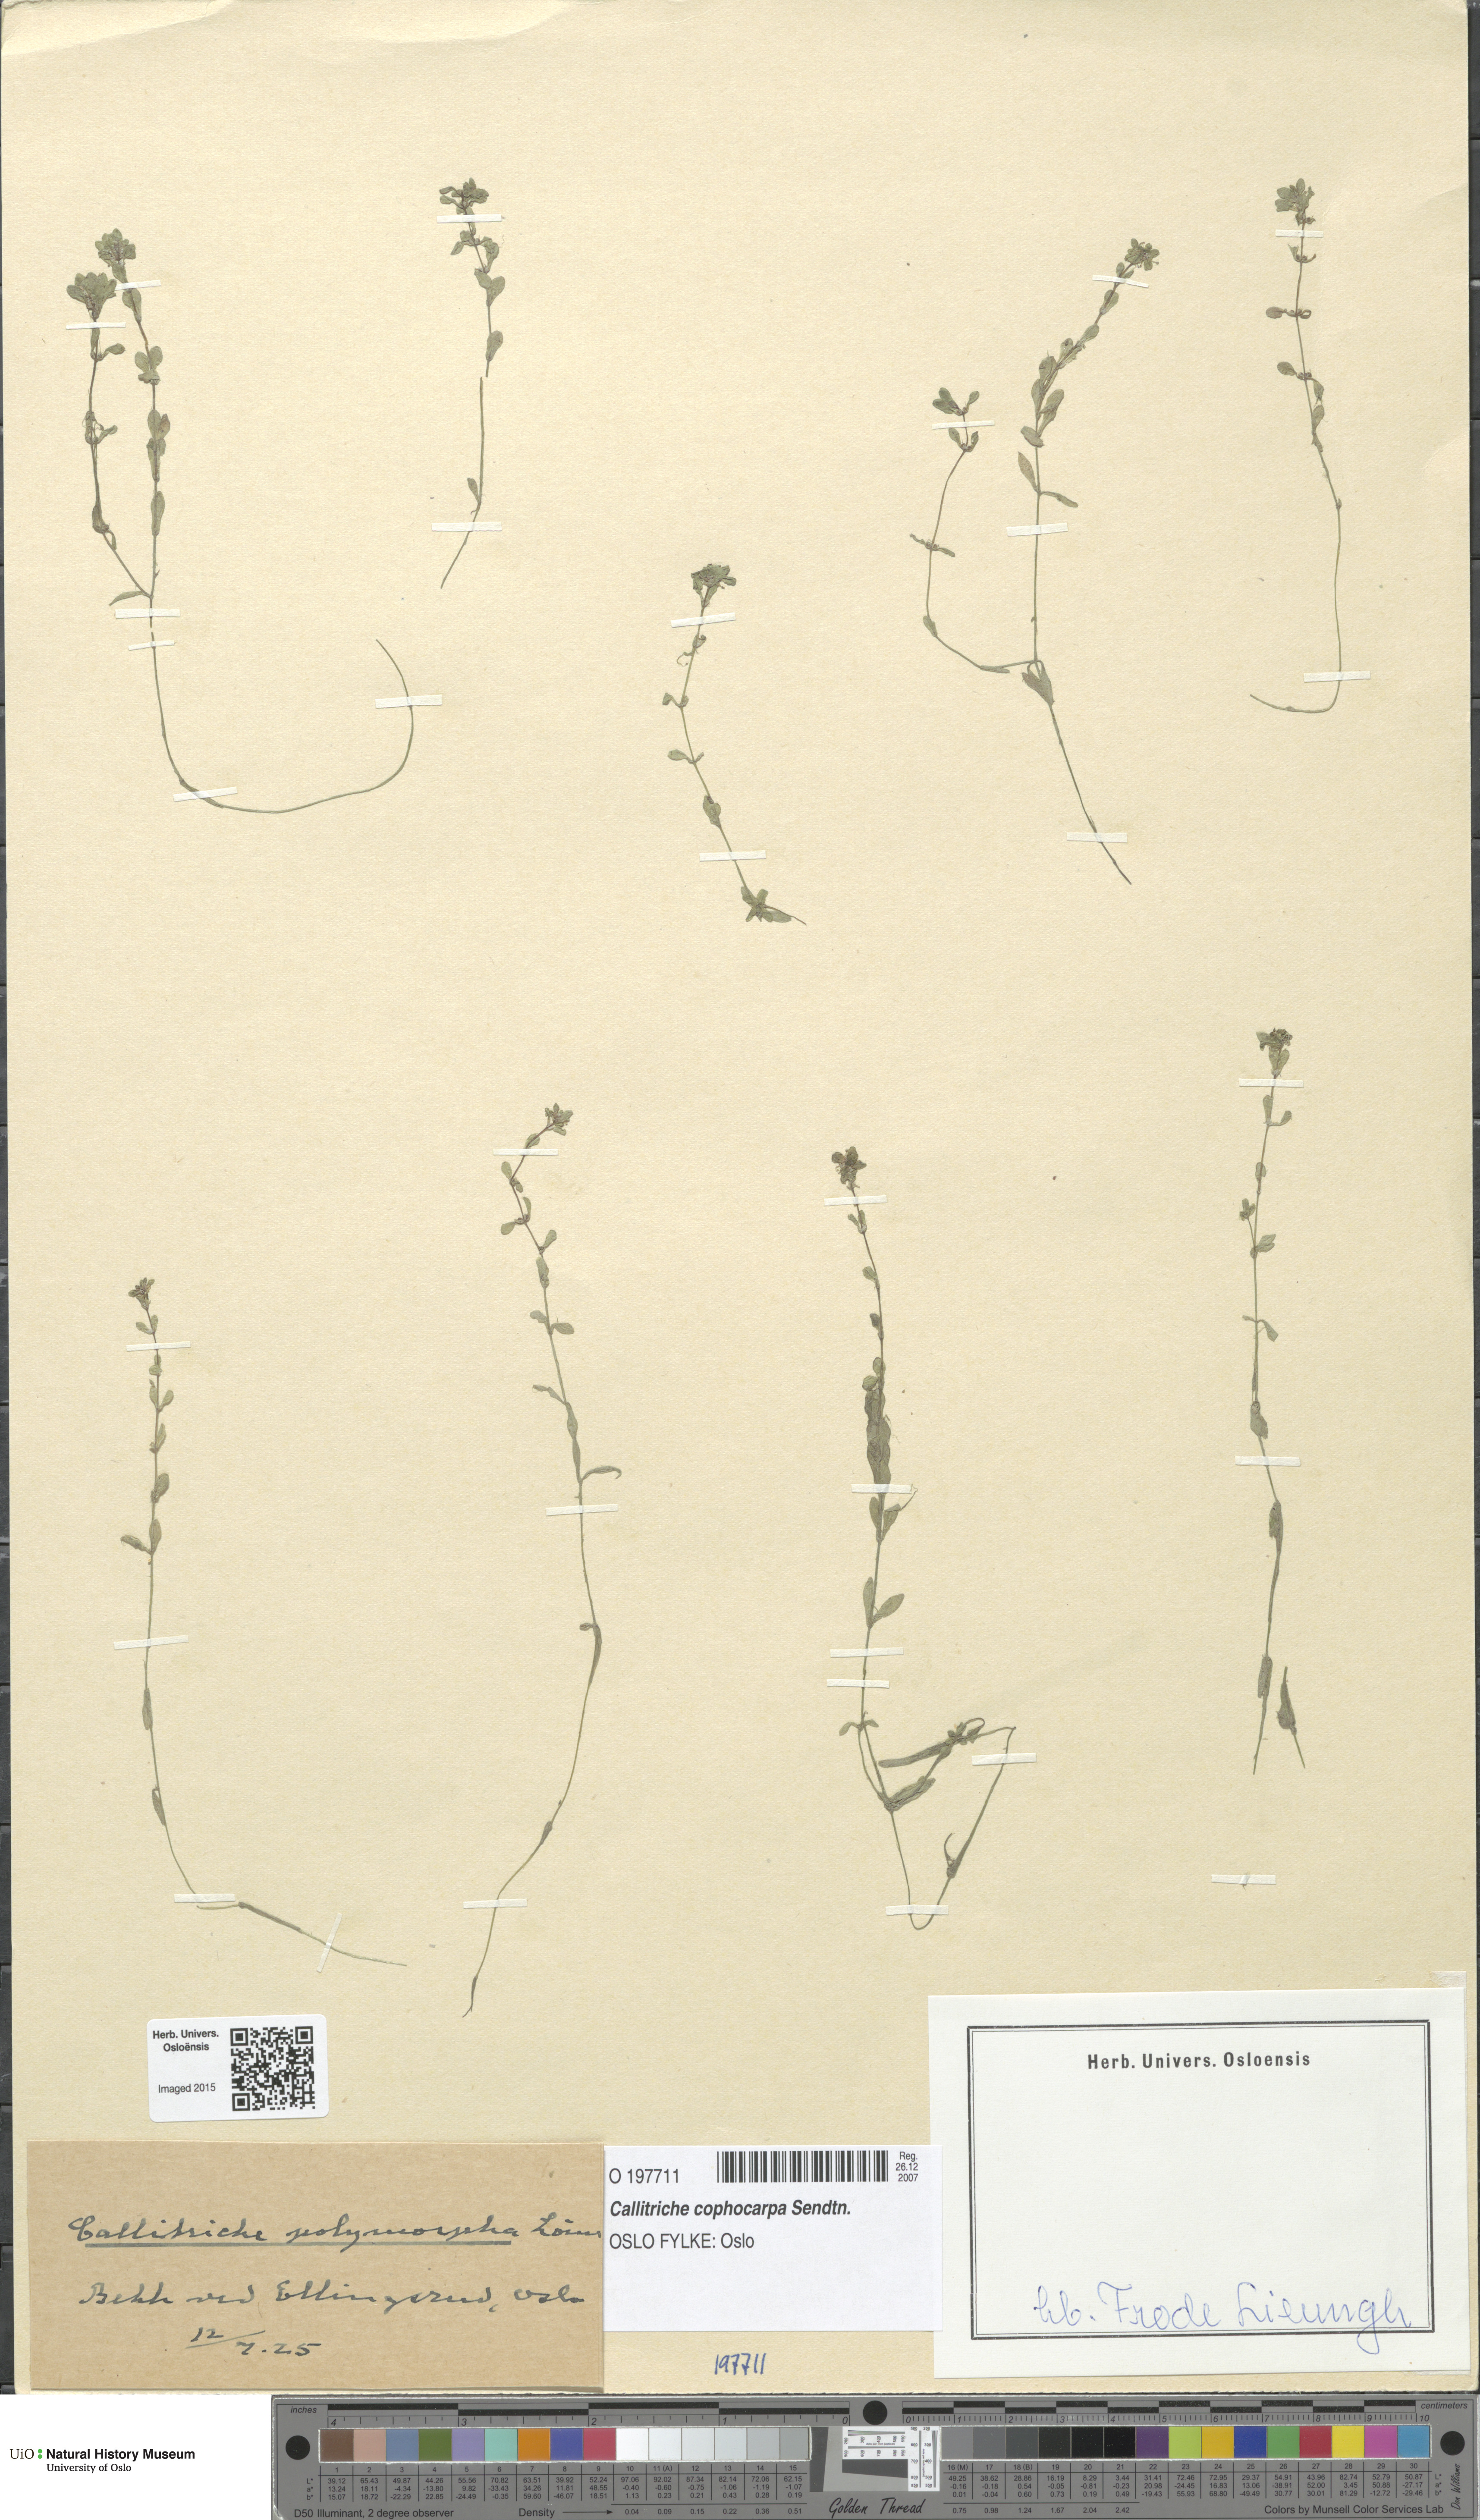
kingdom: Plantae
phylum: Tracheophyta
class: Magnoliopsida
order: Lamiales
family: Plantaginaceae
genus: Callitriche
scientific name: Callitriche cophocarpa
